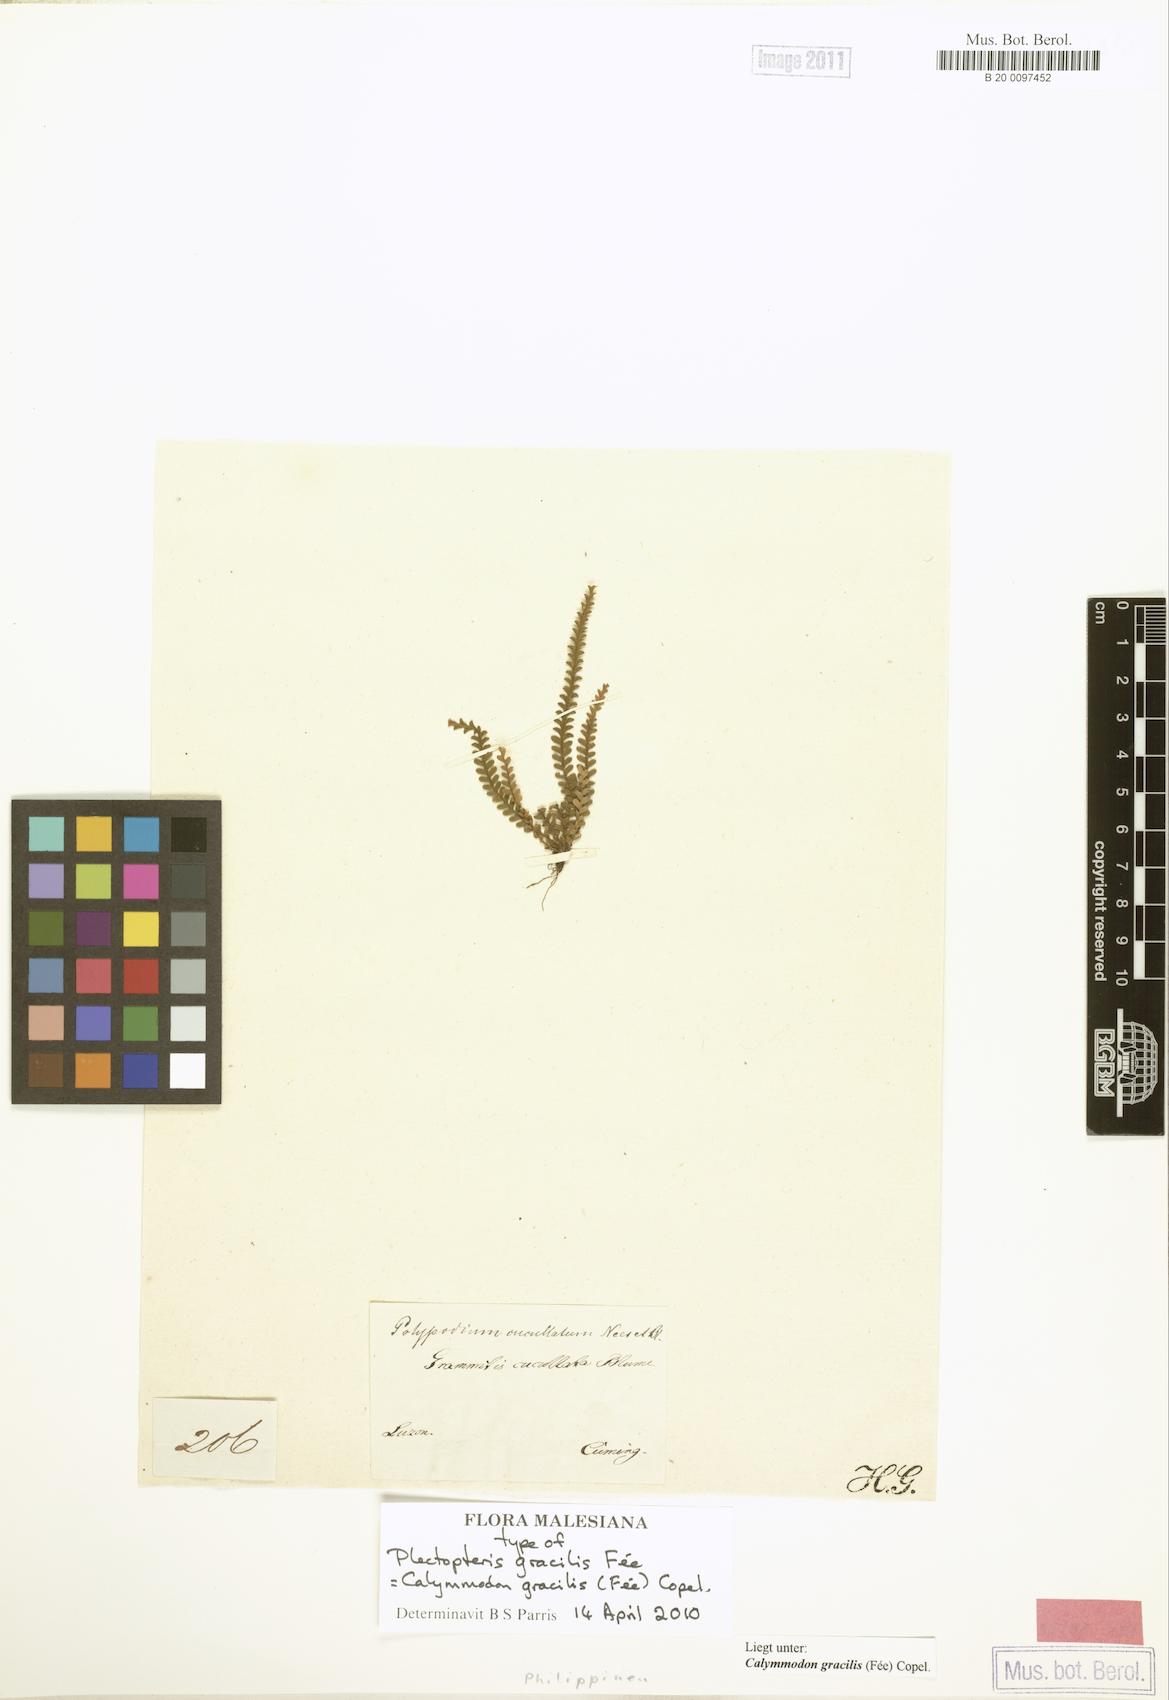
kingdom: Plantae
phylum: Tracheophyta
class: Polypodiopsida
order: Polypodiales
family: Polypodiaceae
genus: Calymmodon
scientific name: Calymmodon gracilis
